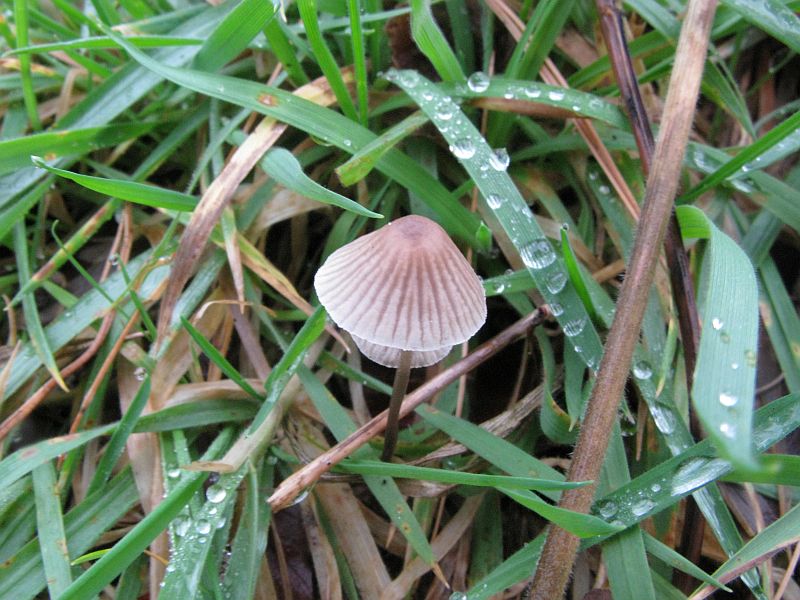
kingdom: Fungi
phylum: Basidiomycota
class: Agaricomycetes
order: Agaricales
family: Mycenaceae
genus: Mycena
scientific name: Mycena leptocephala
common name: klor-huesvamp
